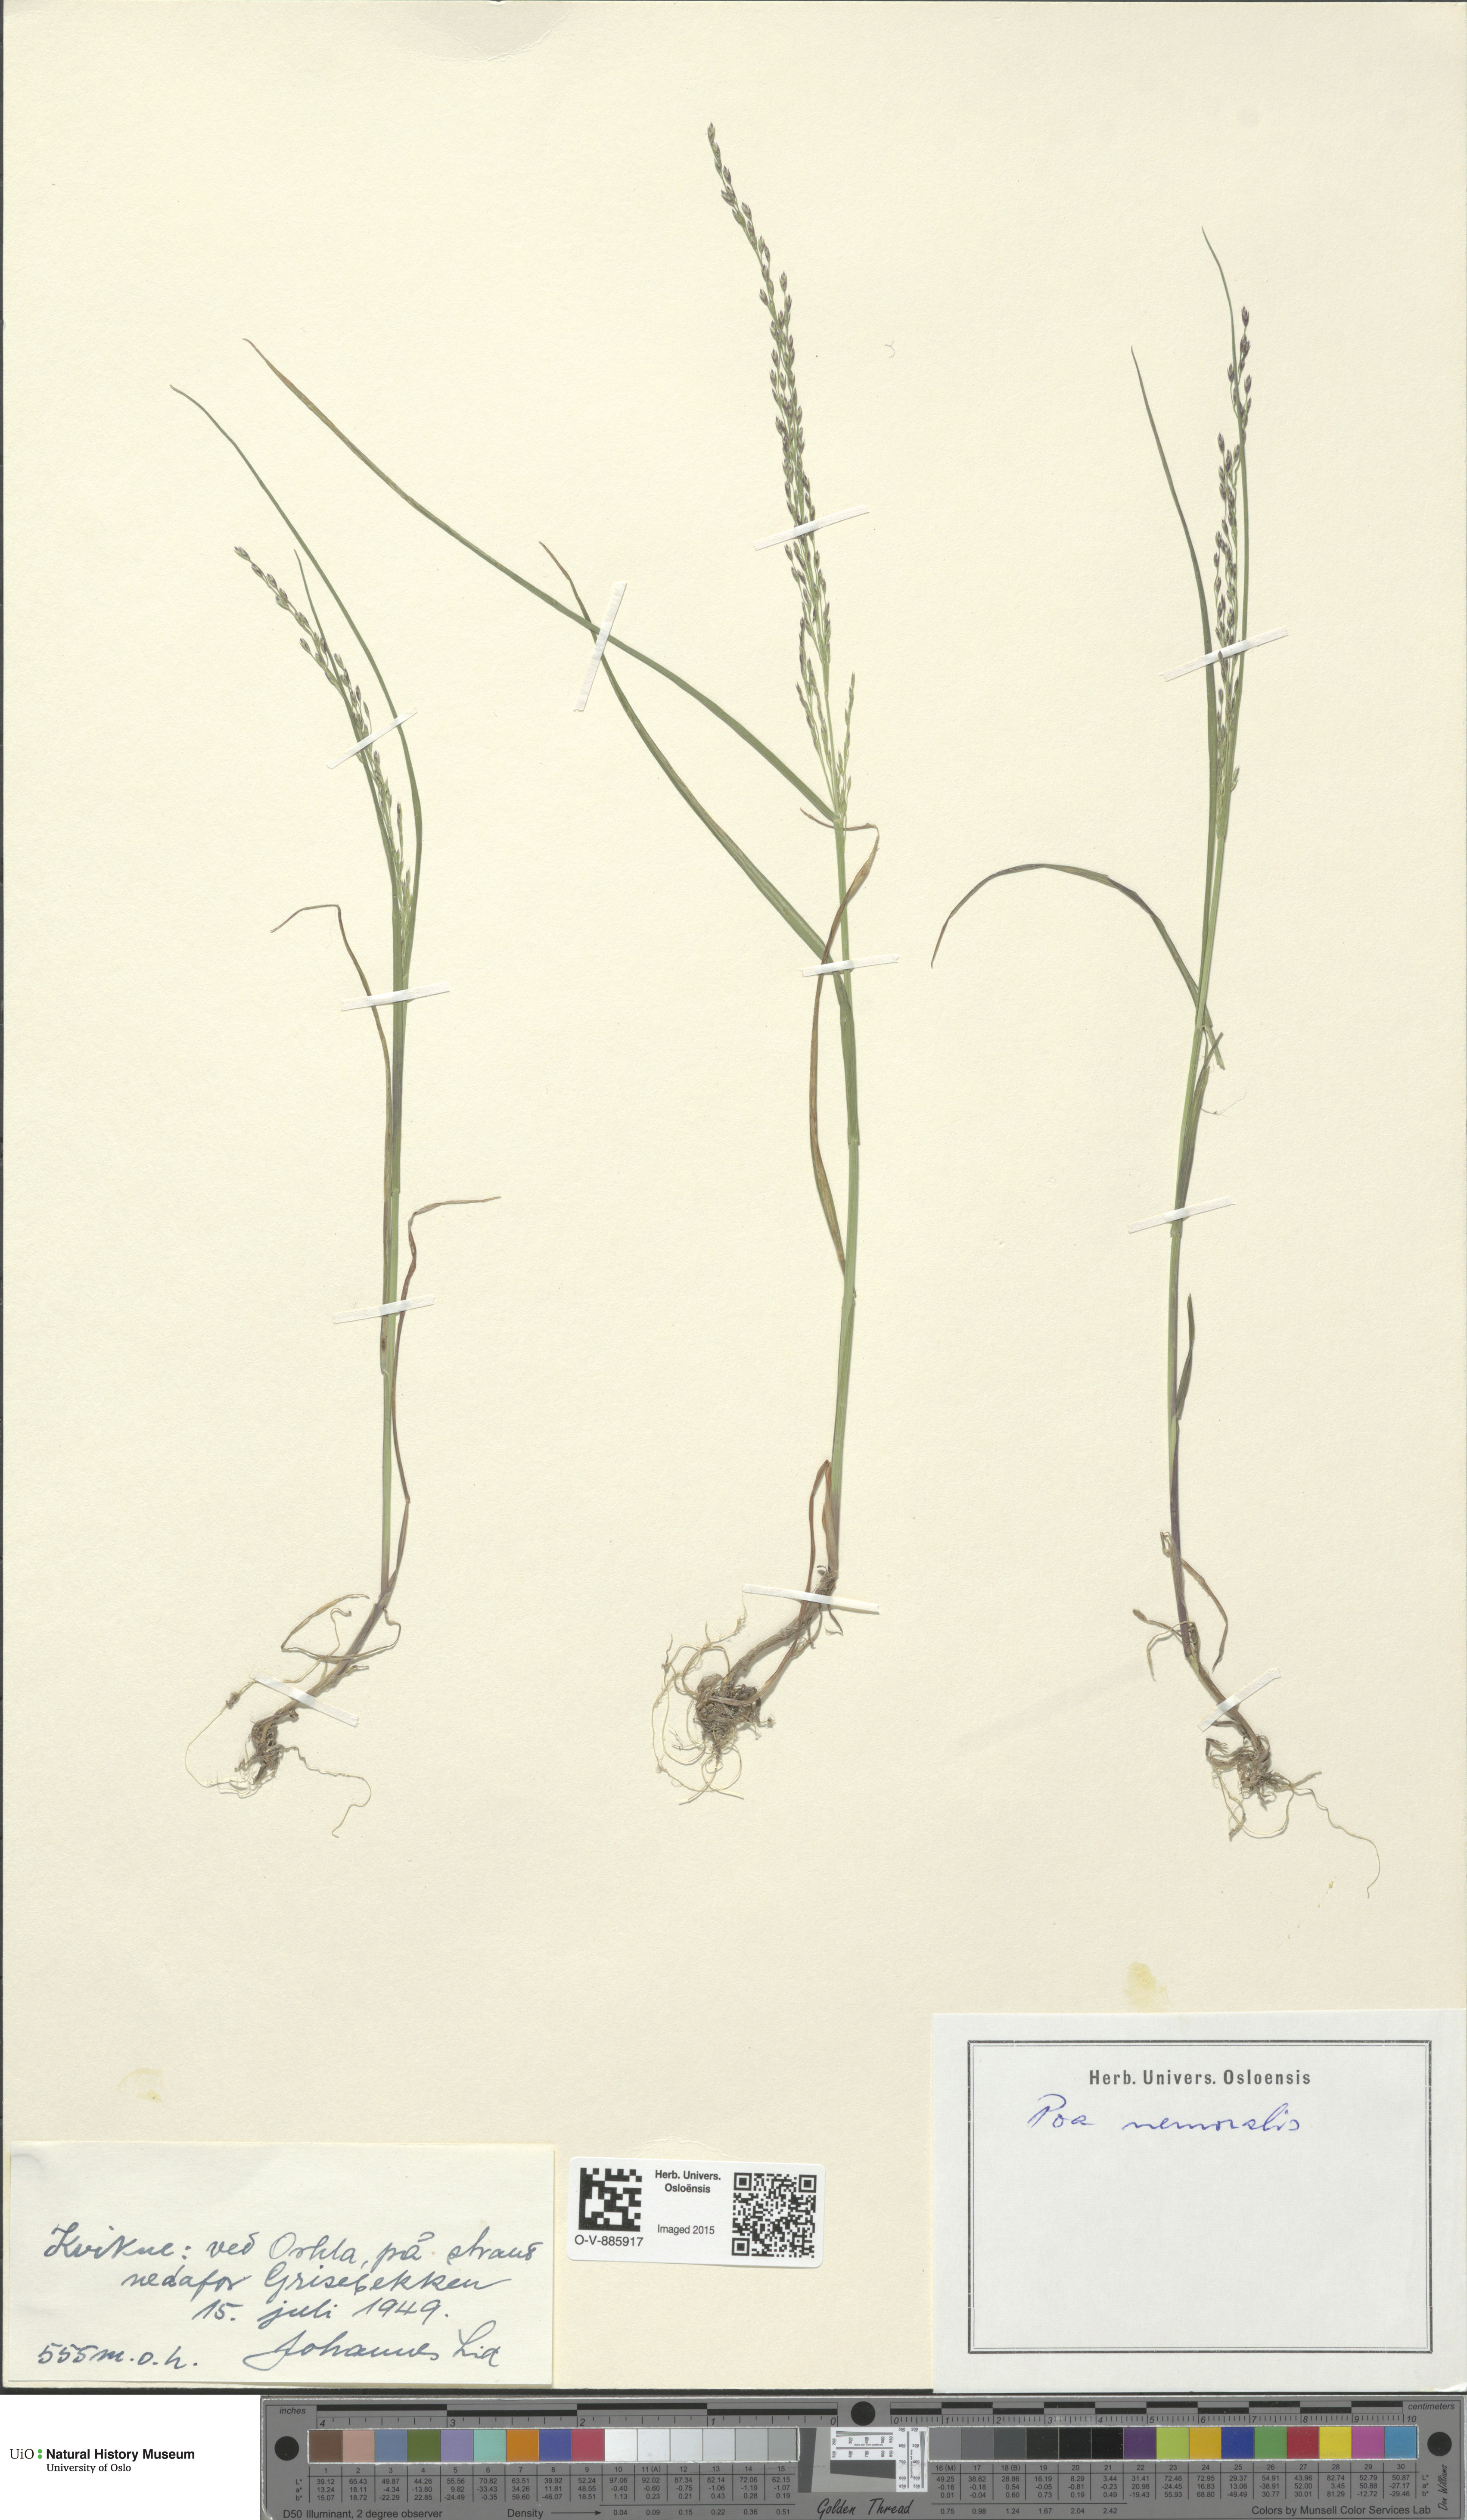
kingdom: Plantae
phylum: Tracheophyta
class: Liliopsida
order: Poales
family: Poaceae
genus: Poa
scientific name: Poa nemoralis
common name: Wood bluegrass
